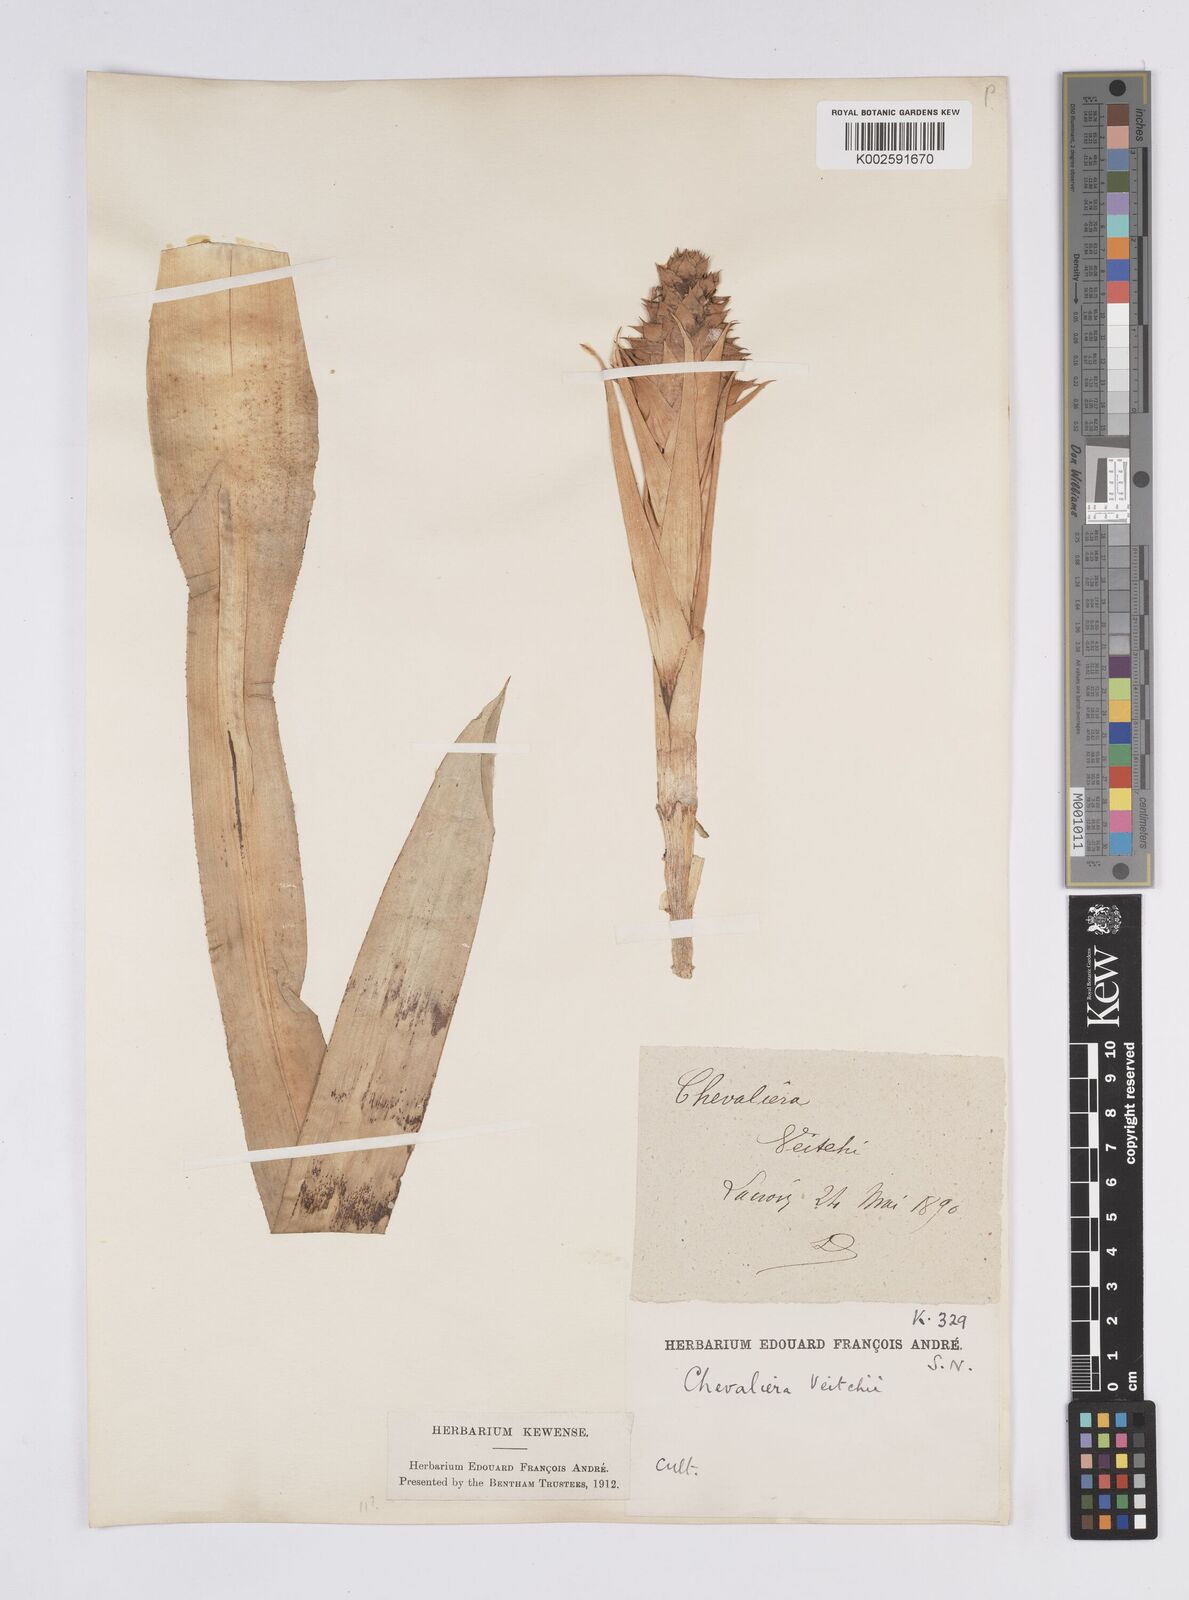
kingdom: Plantae
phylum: Tracheophyta
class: Liliopsida
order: Poales
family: Bromeliaceae
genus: Ronnbergia
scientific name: Ronnbergia veitchii
